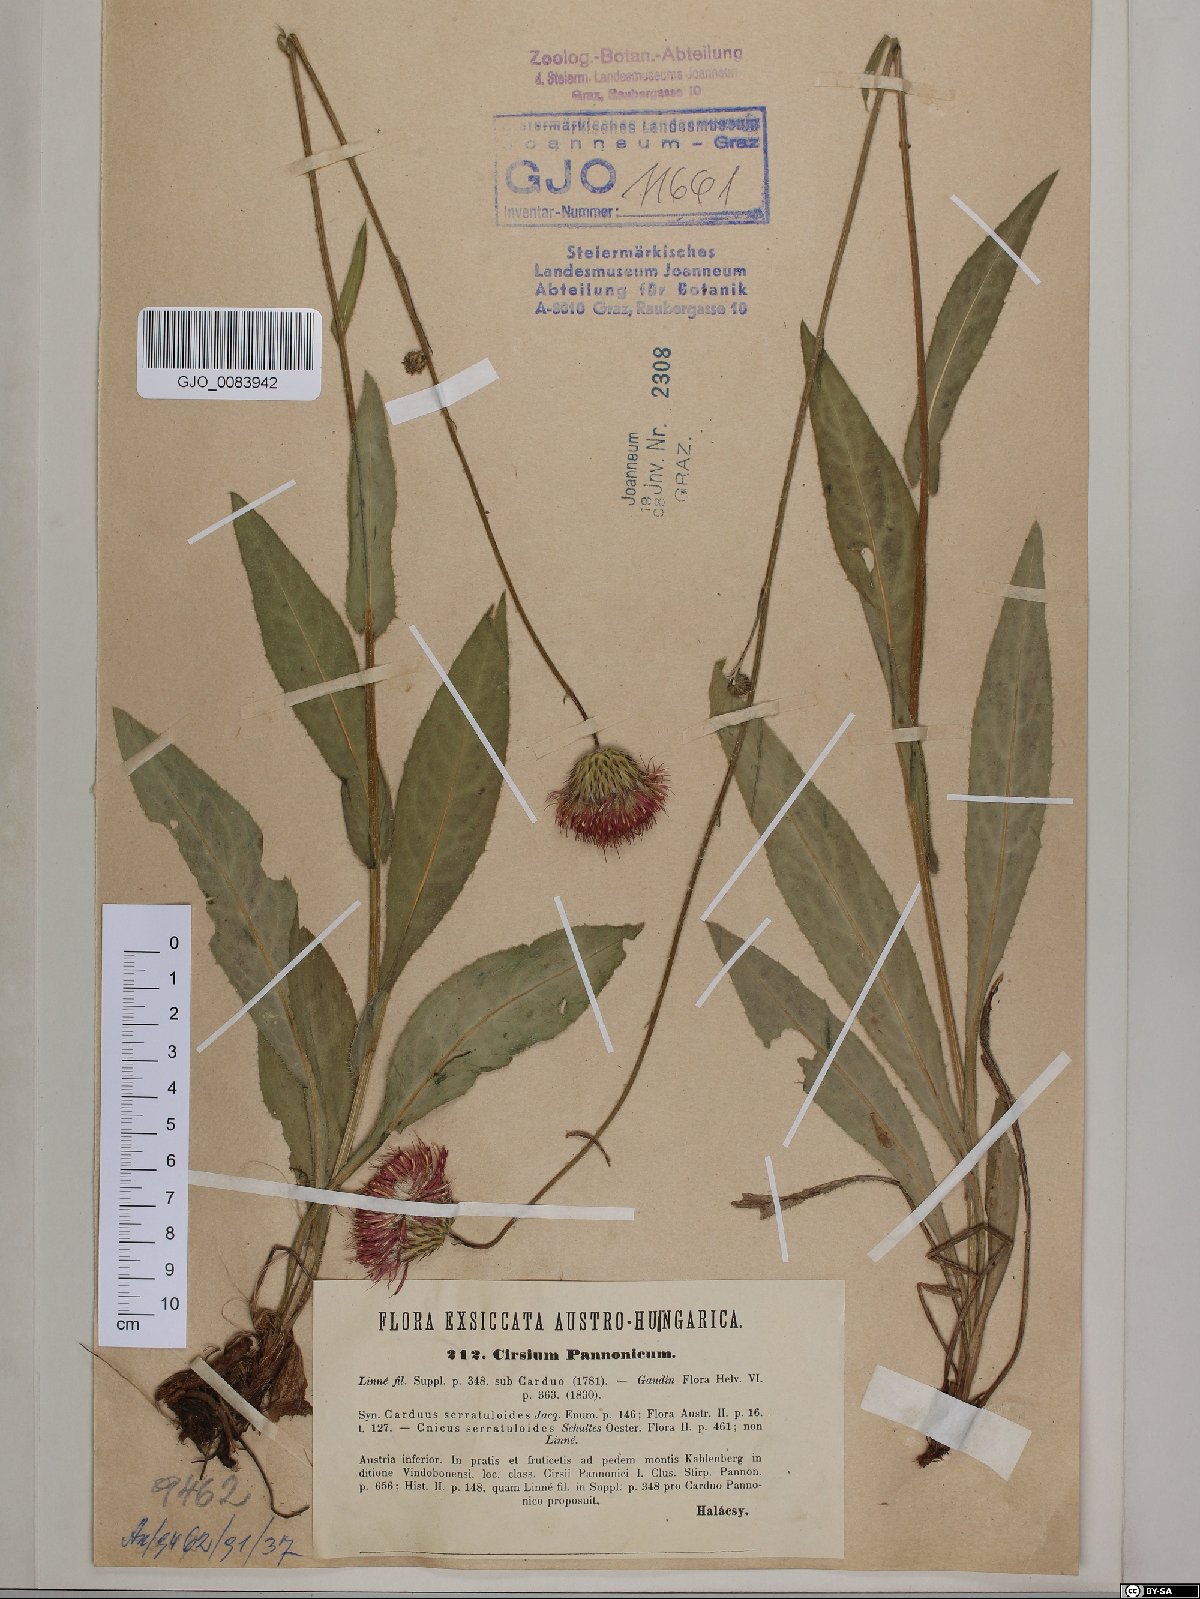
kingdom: Plantae
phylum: Tracheophyta
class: Magnoliopsida
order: Asterales
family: Asteraceae
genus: Cirsium
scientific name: Cirsium pannonicum
